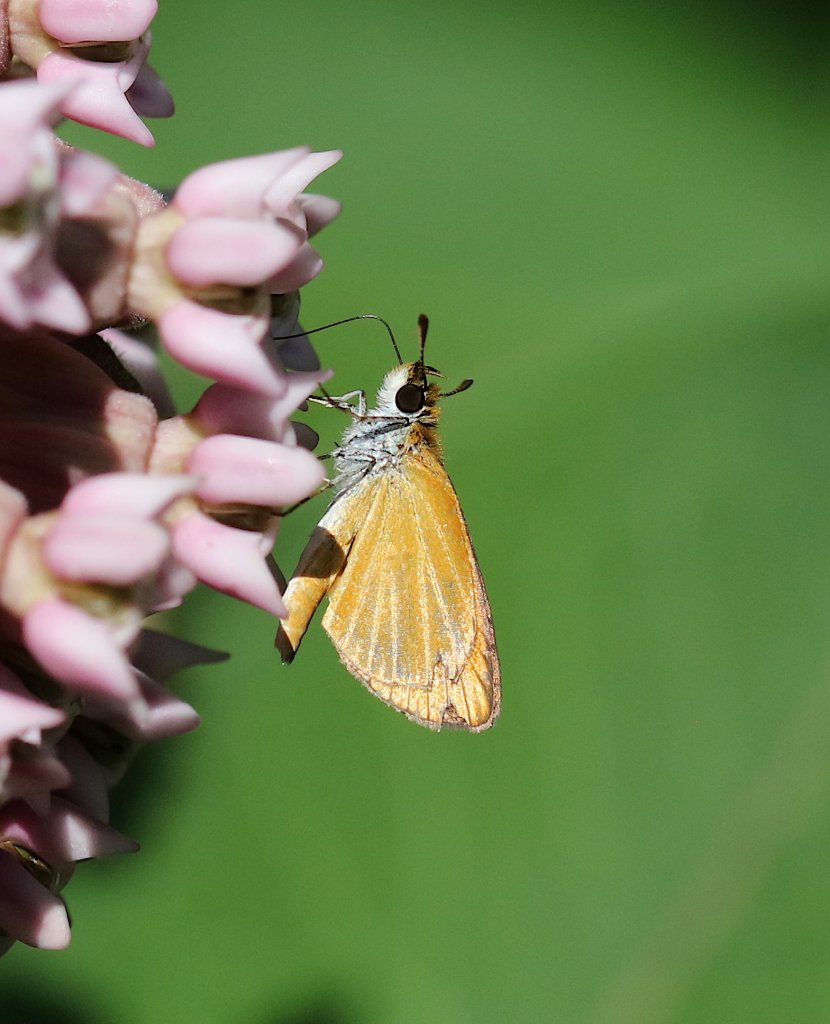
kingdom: Animalia
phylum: Arthropoda
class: Insecta
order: Lepidoptera
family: Hesperiidae
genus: Ancyloxypha
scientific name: Ancyloxypha numitor
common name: Least Skipper
